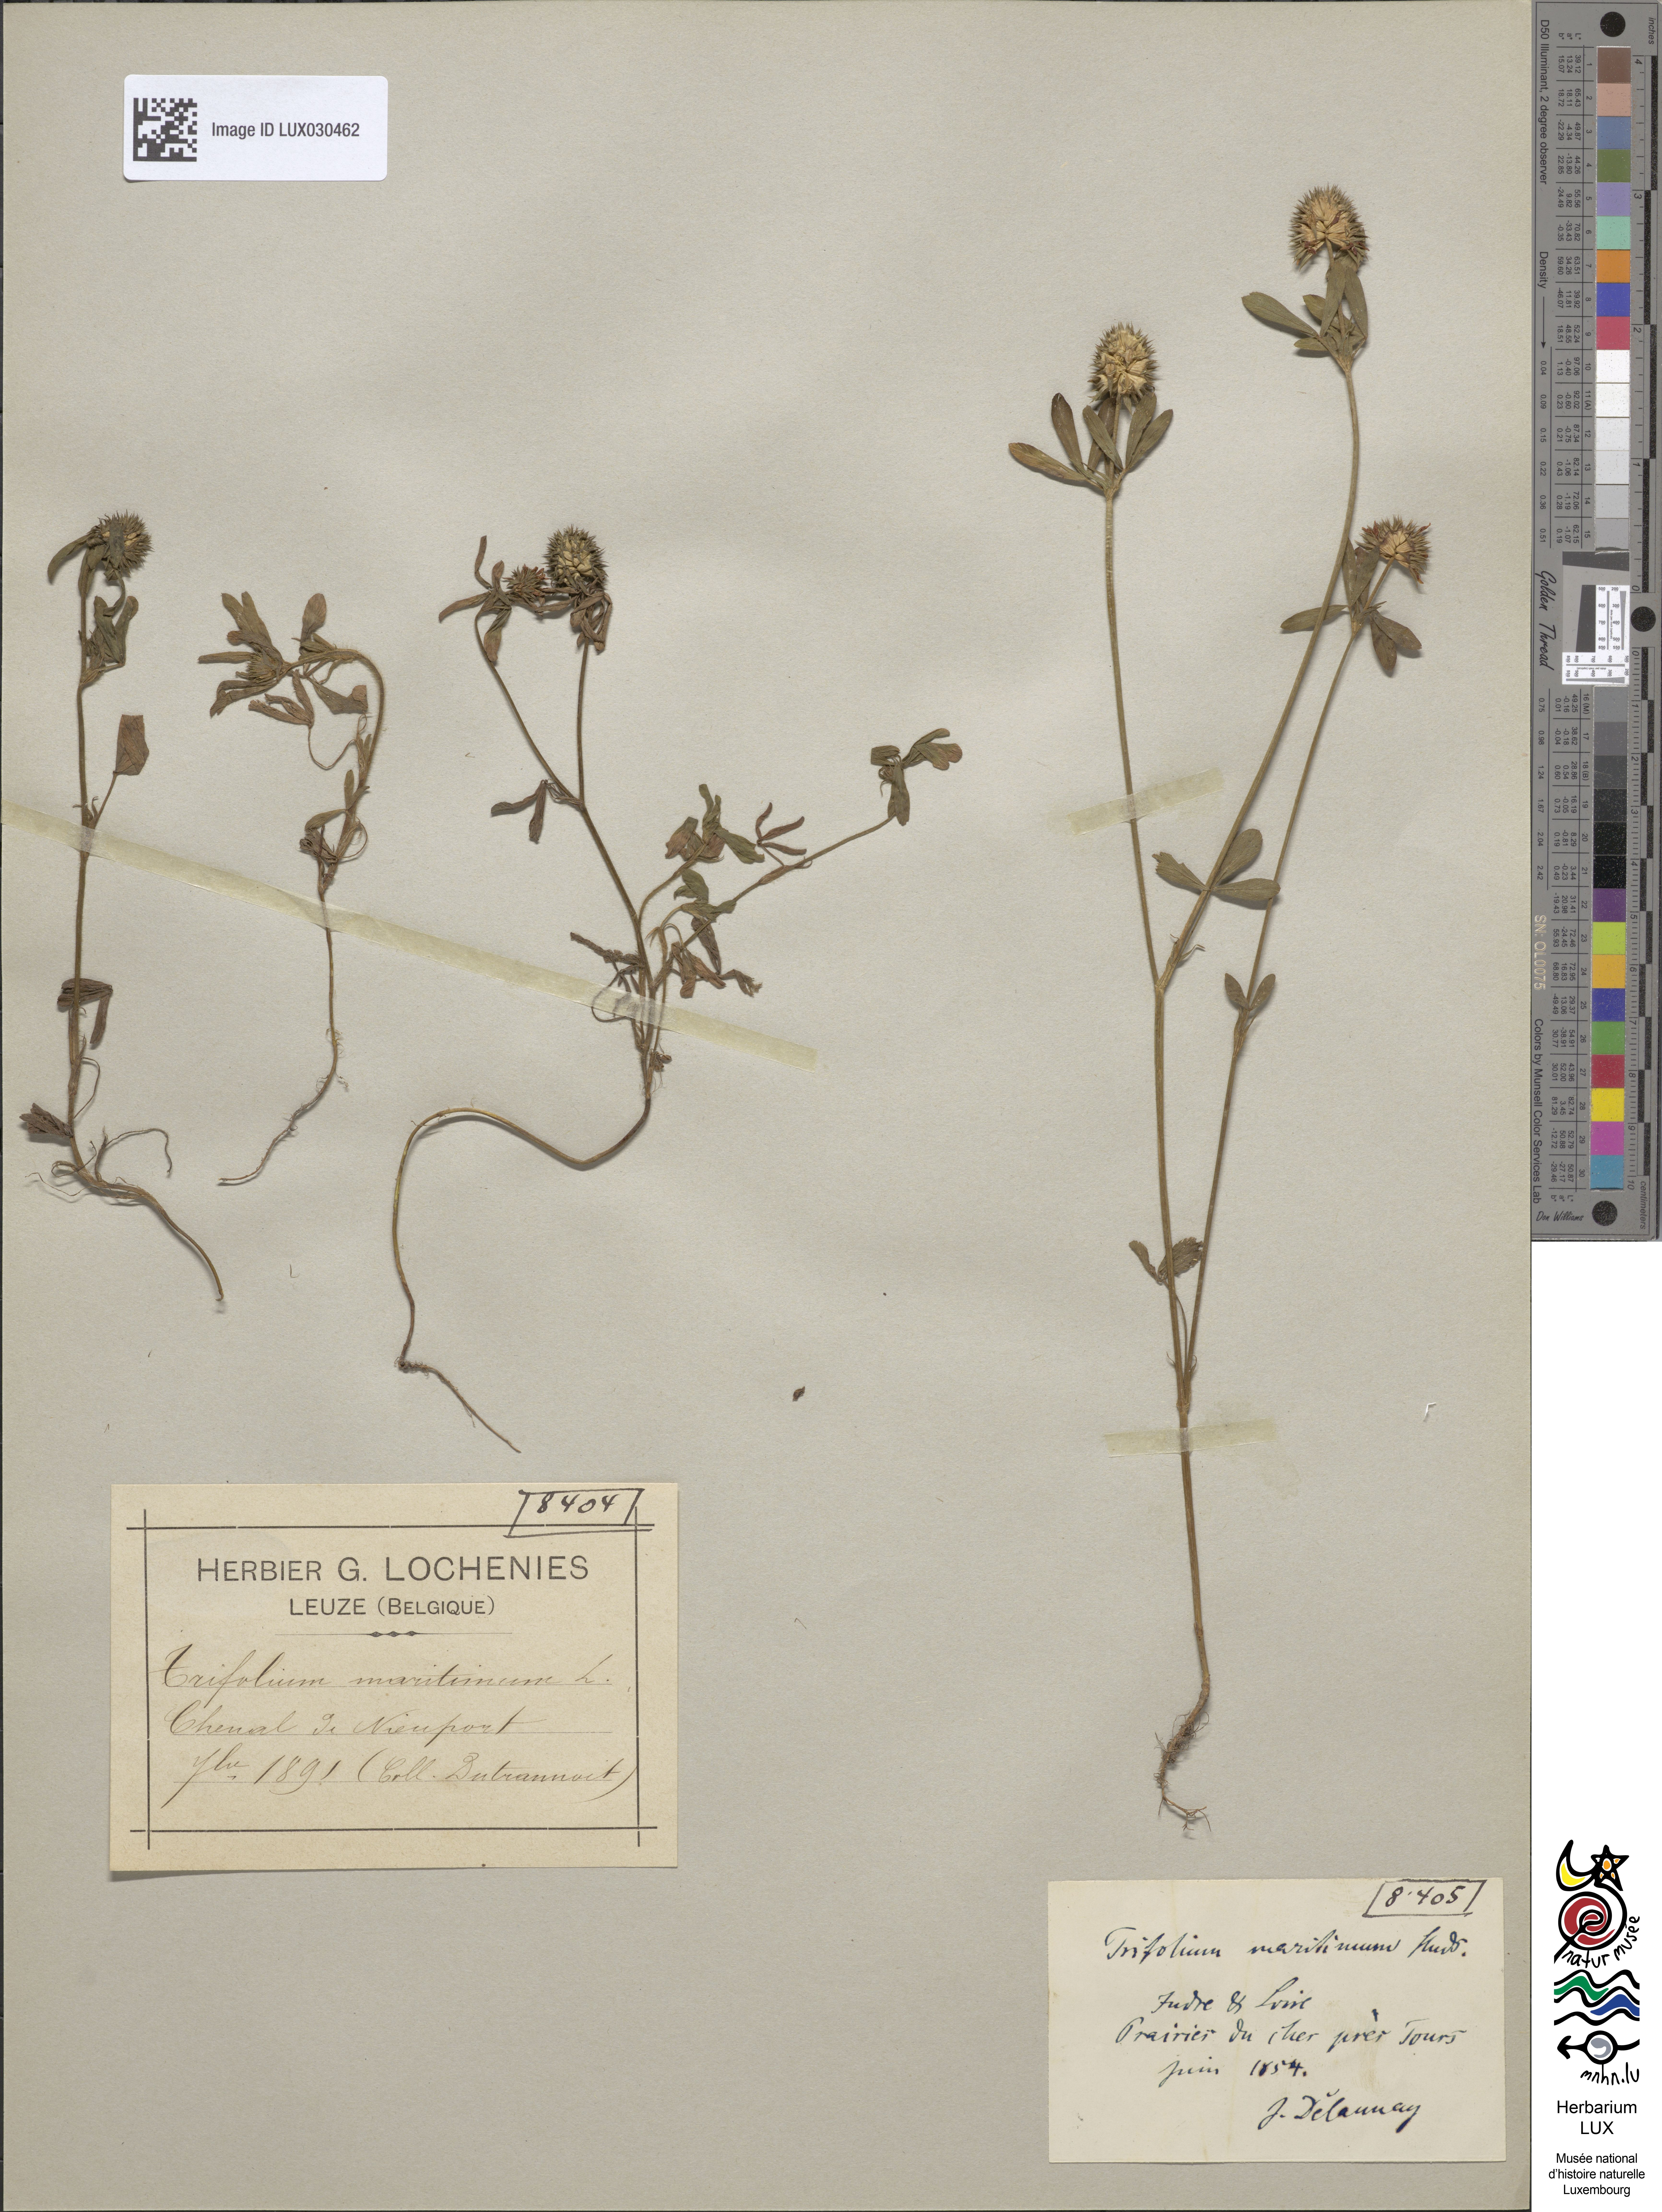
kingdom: Plantae
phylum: Tracheophyta
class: Magnoliopsida
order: Fabales
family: Fabaceae
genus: Trifolium
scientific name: Trifolium squamosum
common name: Sea clover
